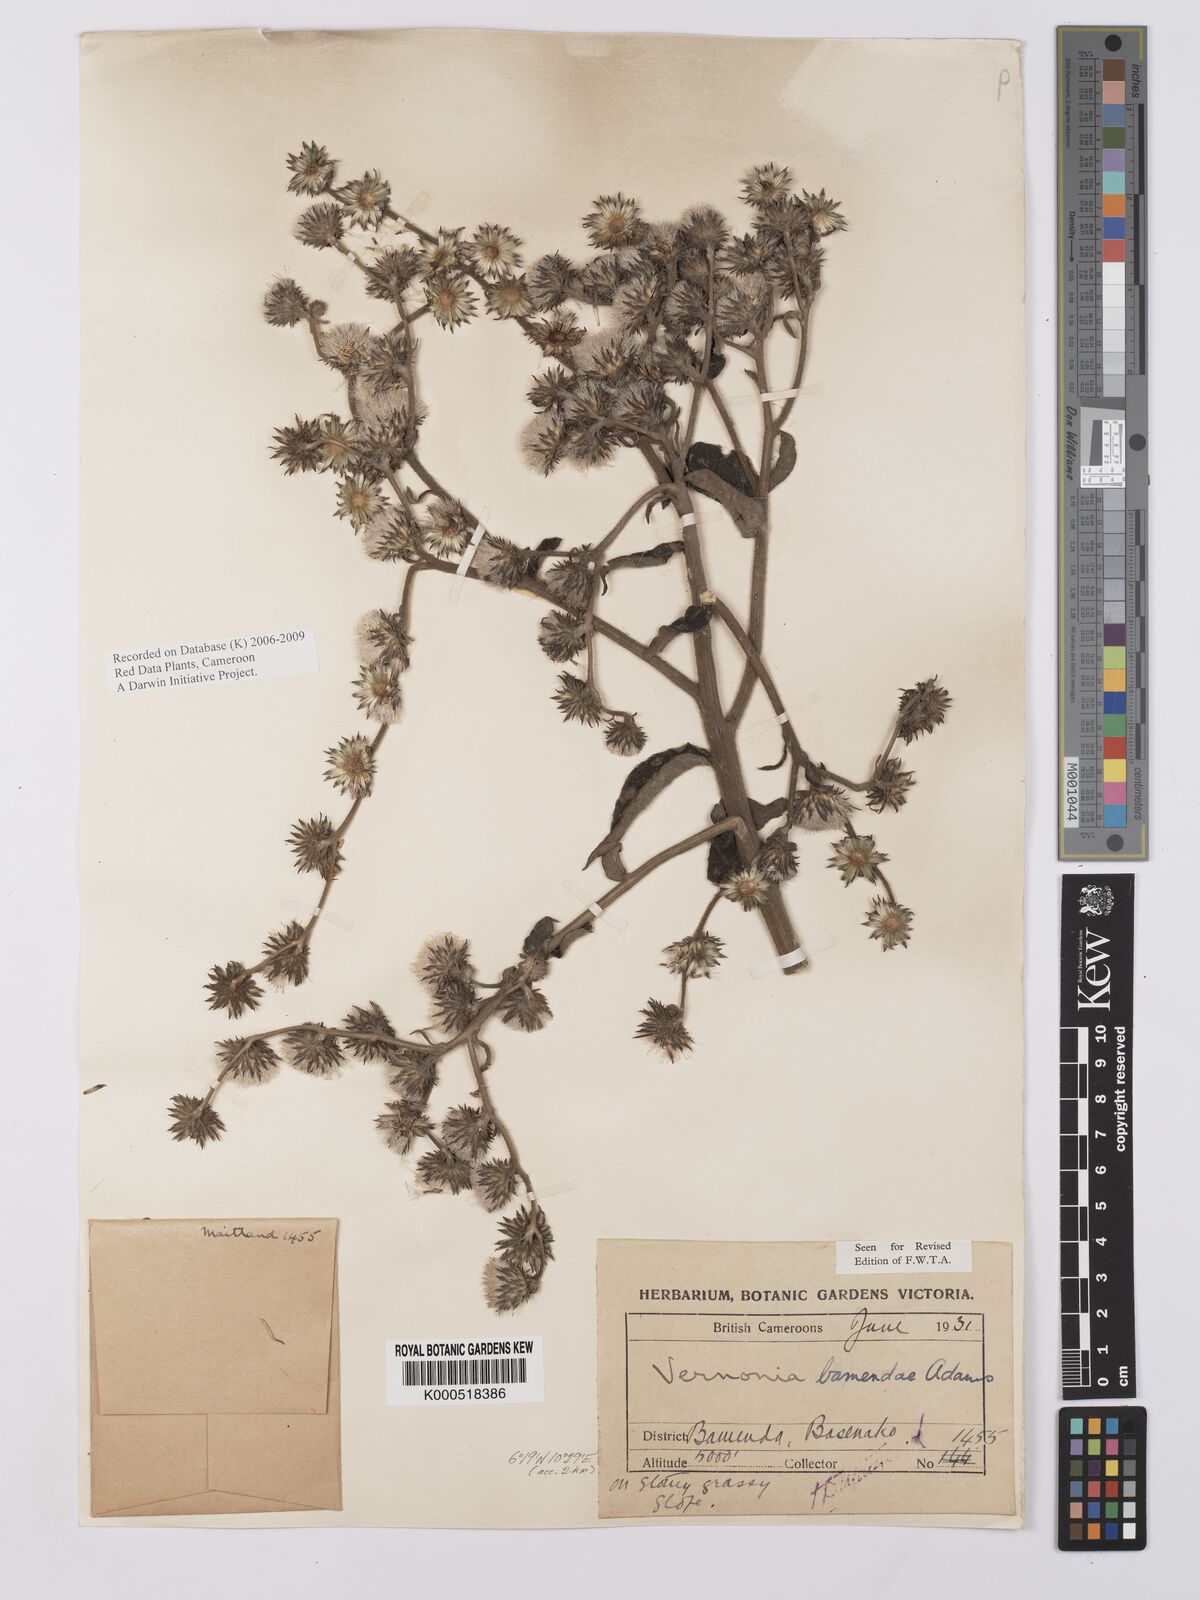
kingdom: Plantae
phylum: Tracheophyta
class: Magnoliopsida
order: Asterales
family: Asteraceae
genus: Orbivestus
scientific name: Orbivestus bamendae
